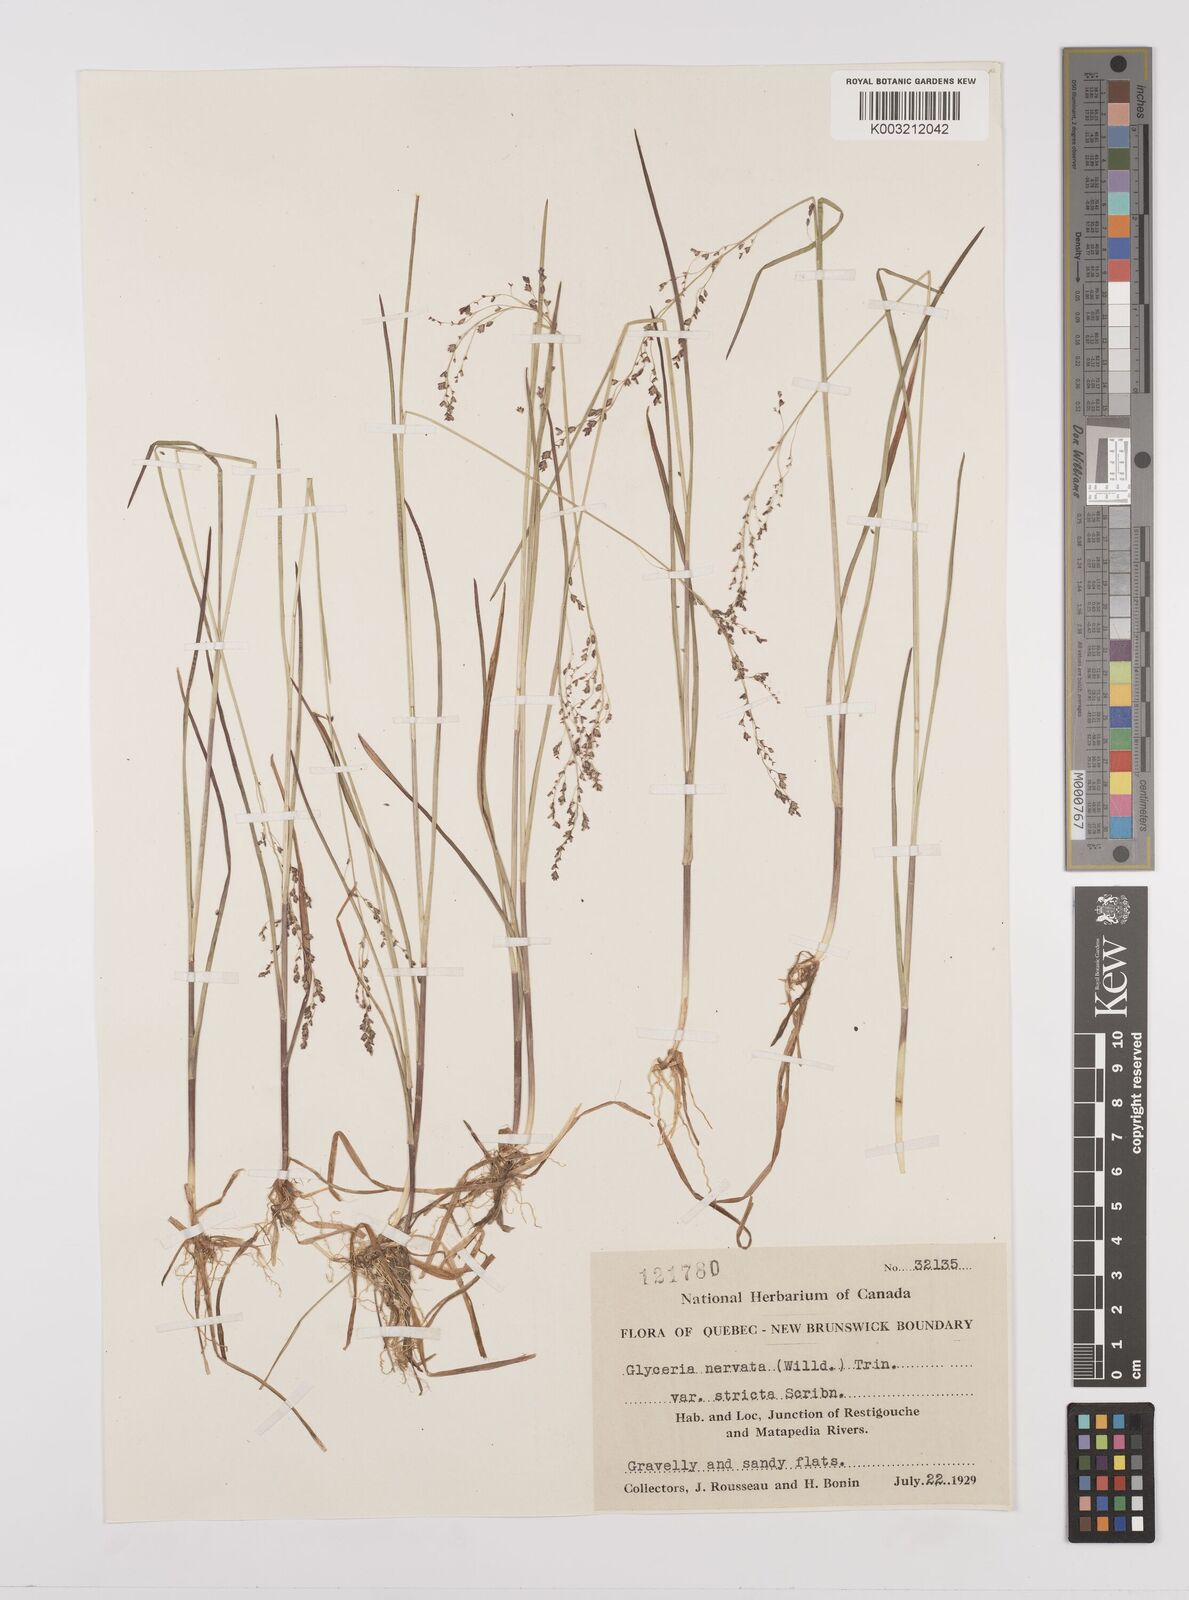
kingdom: Plantae
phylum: Tracheophyta
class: Liliopsida
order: Poales
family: Poaceae
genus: Glyceria
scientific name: Glyceria striata
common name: Fowl manna grass
